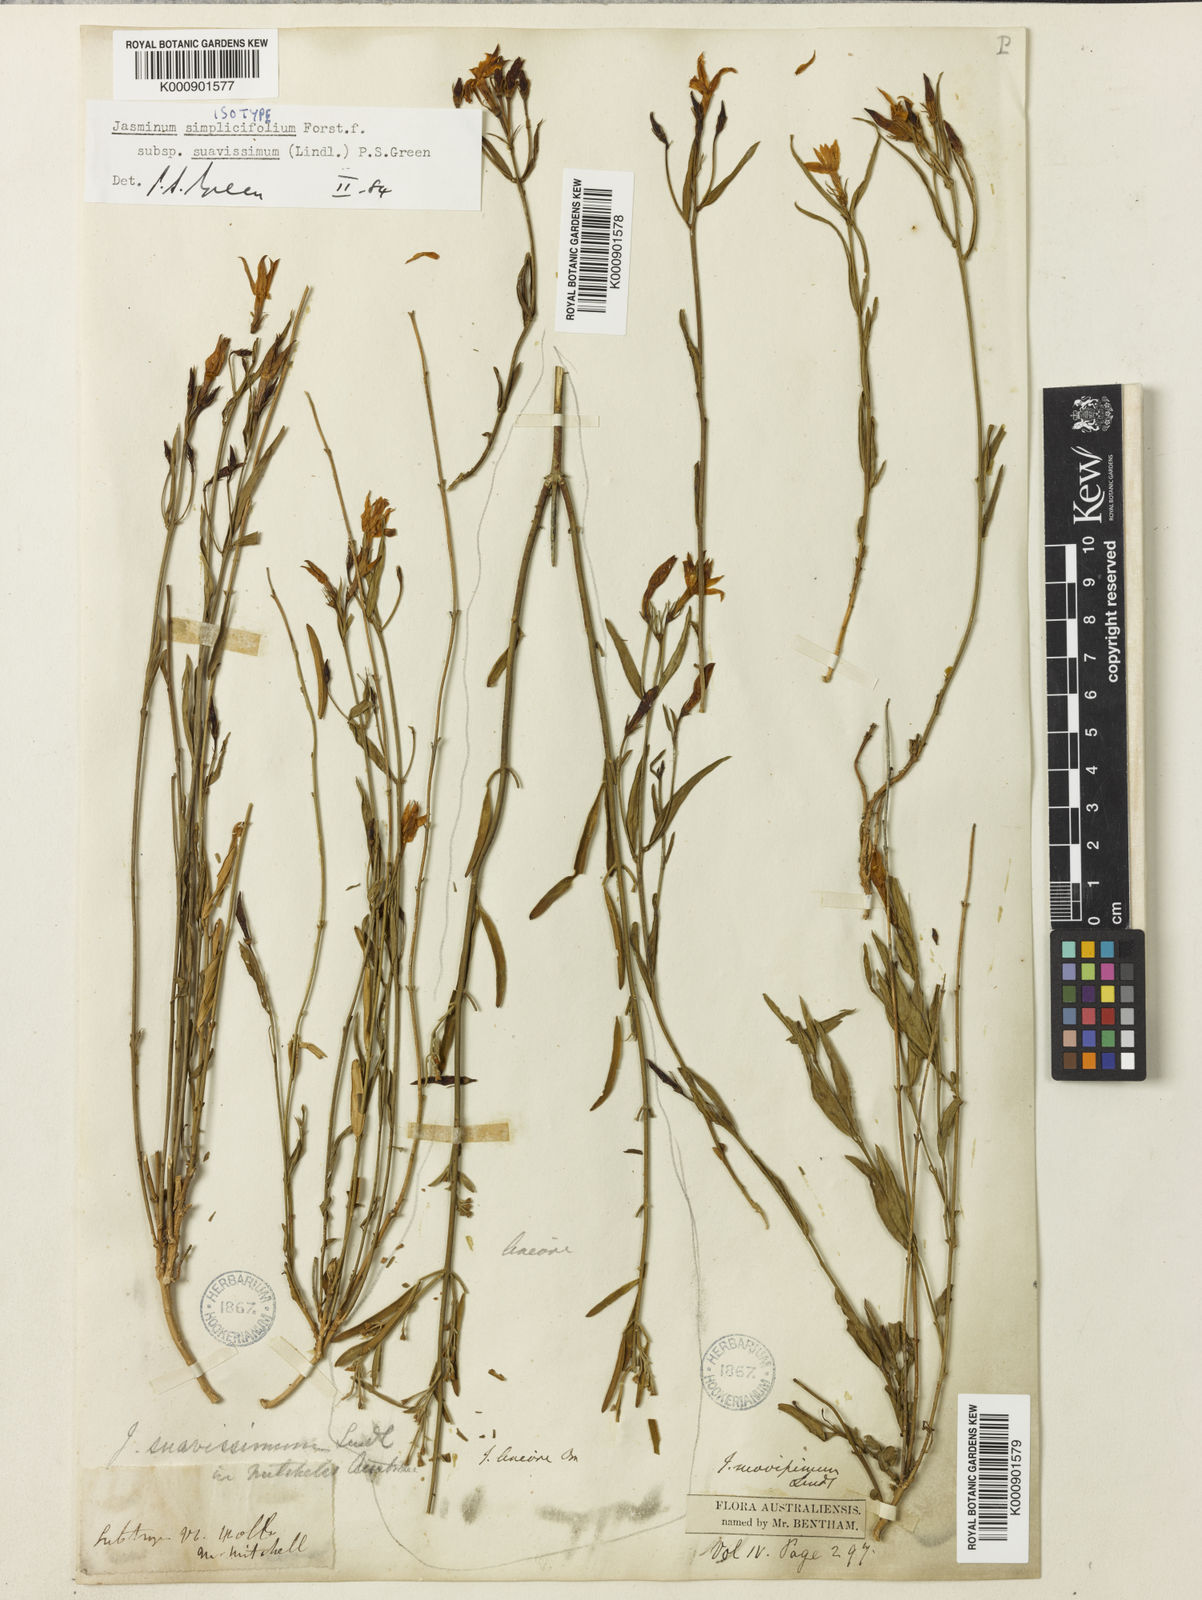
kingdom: Plantae
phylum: Tracheophyta
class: Magnoliopsida
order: Lamiales
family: Oleaceae
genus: Jasminum
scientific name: Jasminum simplicifolium
